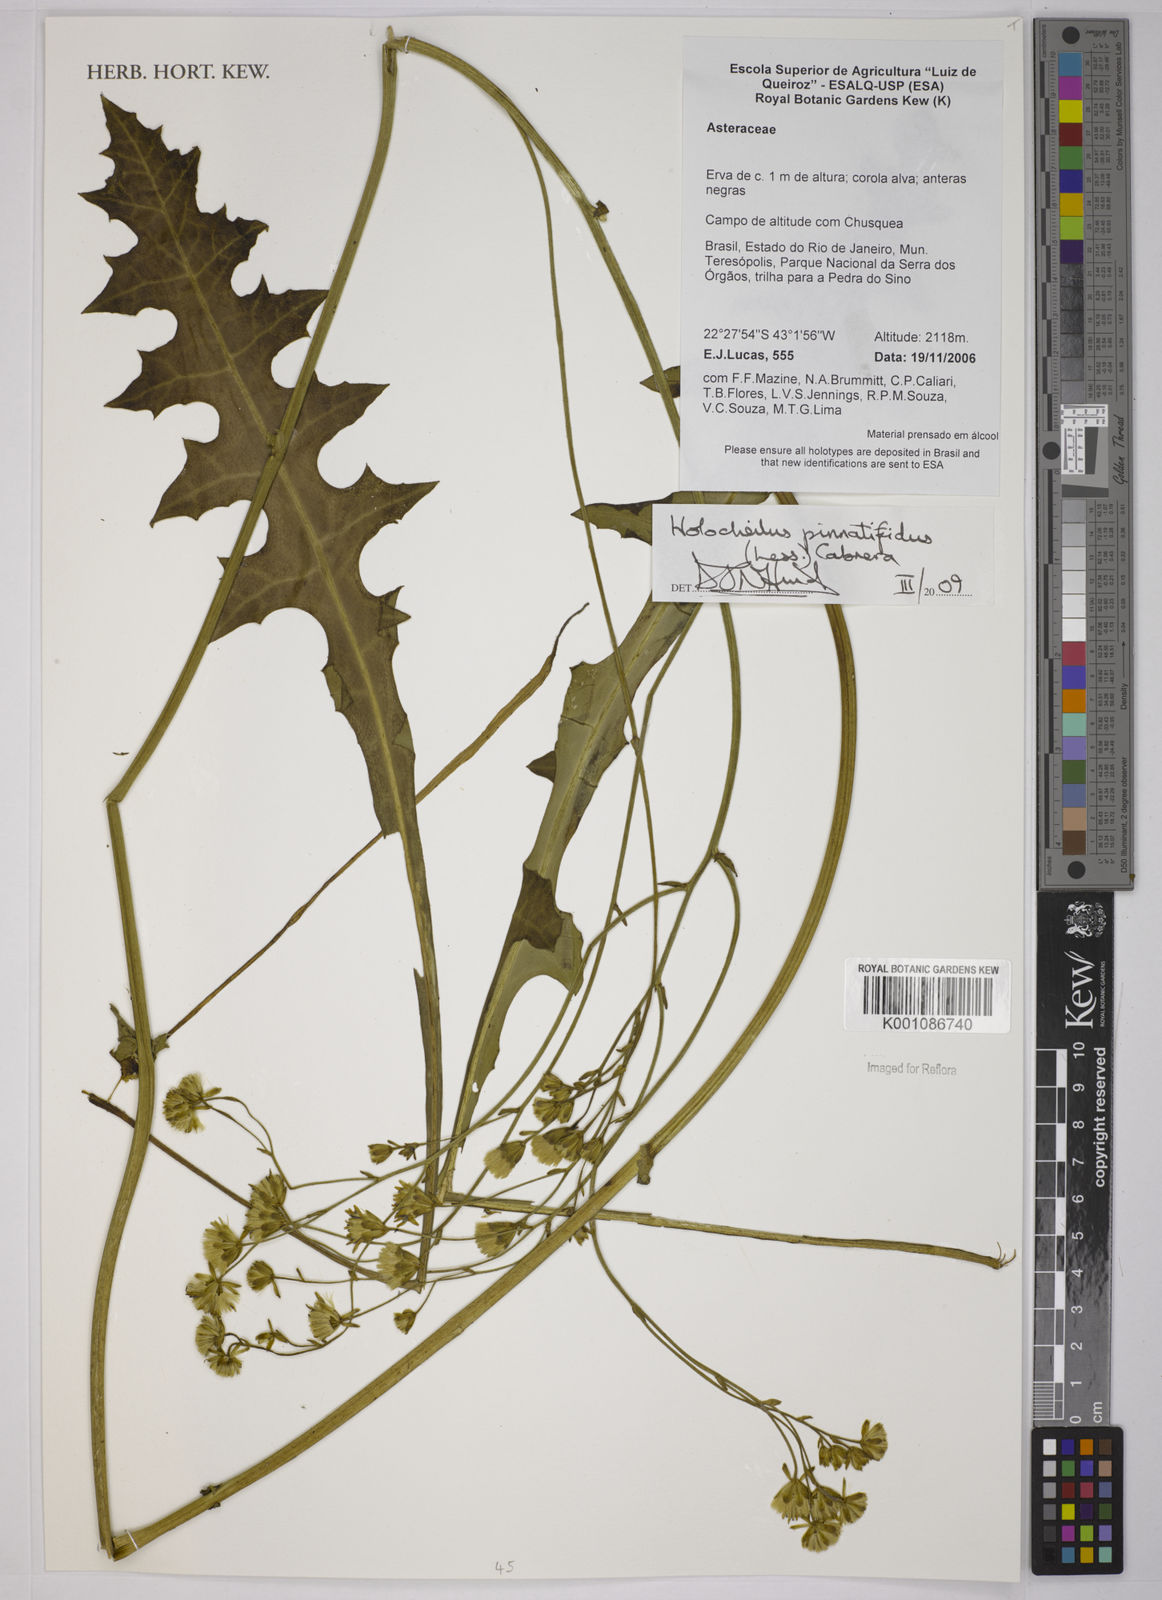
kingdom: Plantae
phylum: Tracheophyta
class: Magnoliopsida
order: Asterales
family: Asteraceae
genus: Holocheilus
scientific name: Holocheilus pinnatifidus
